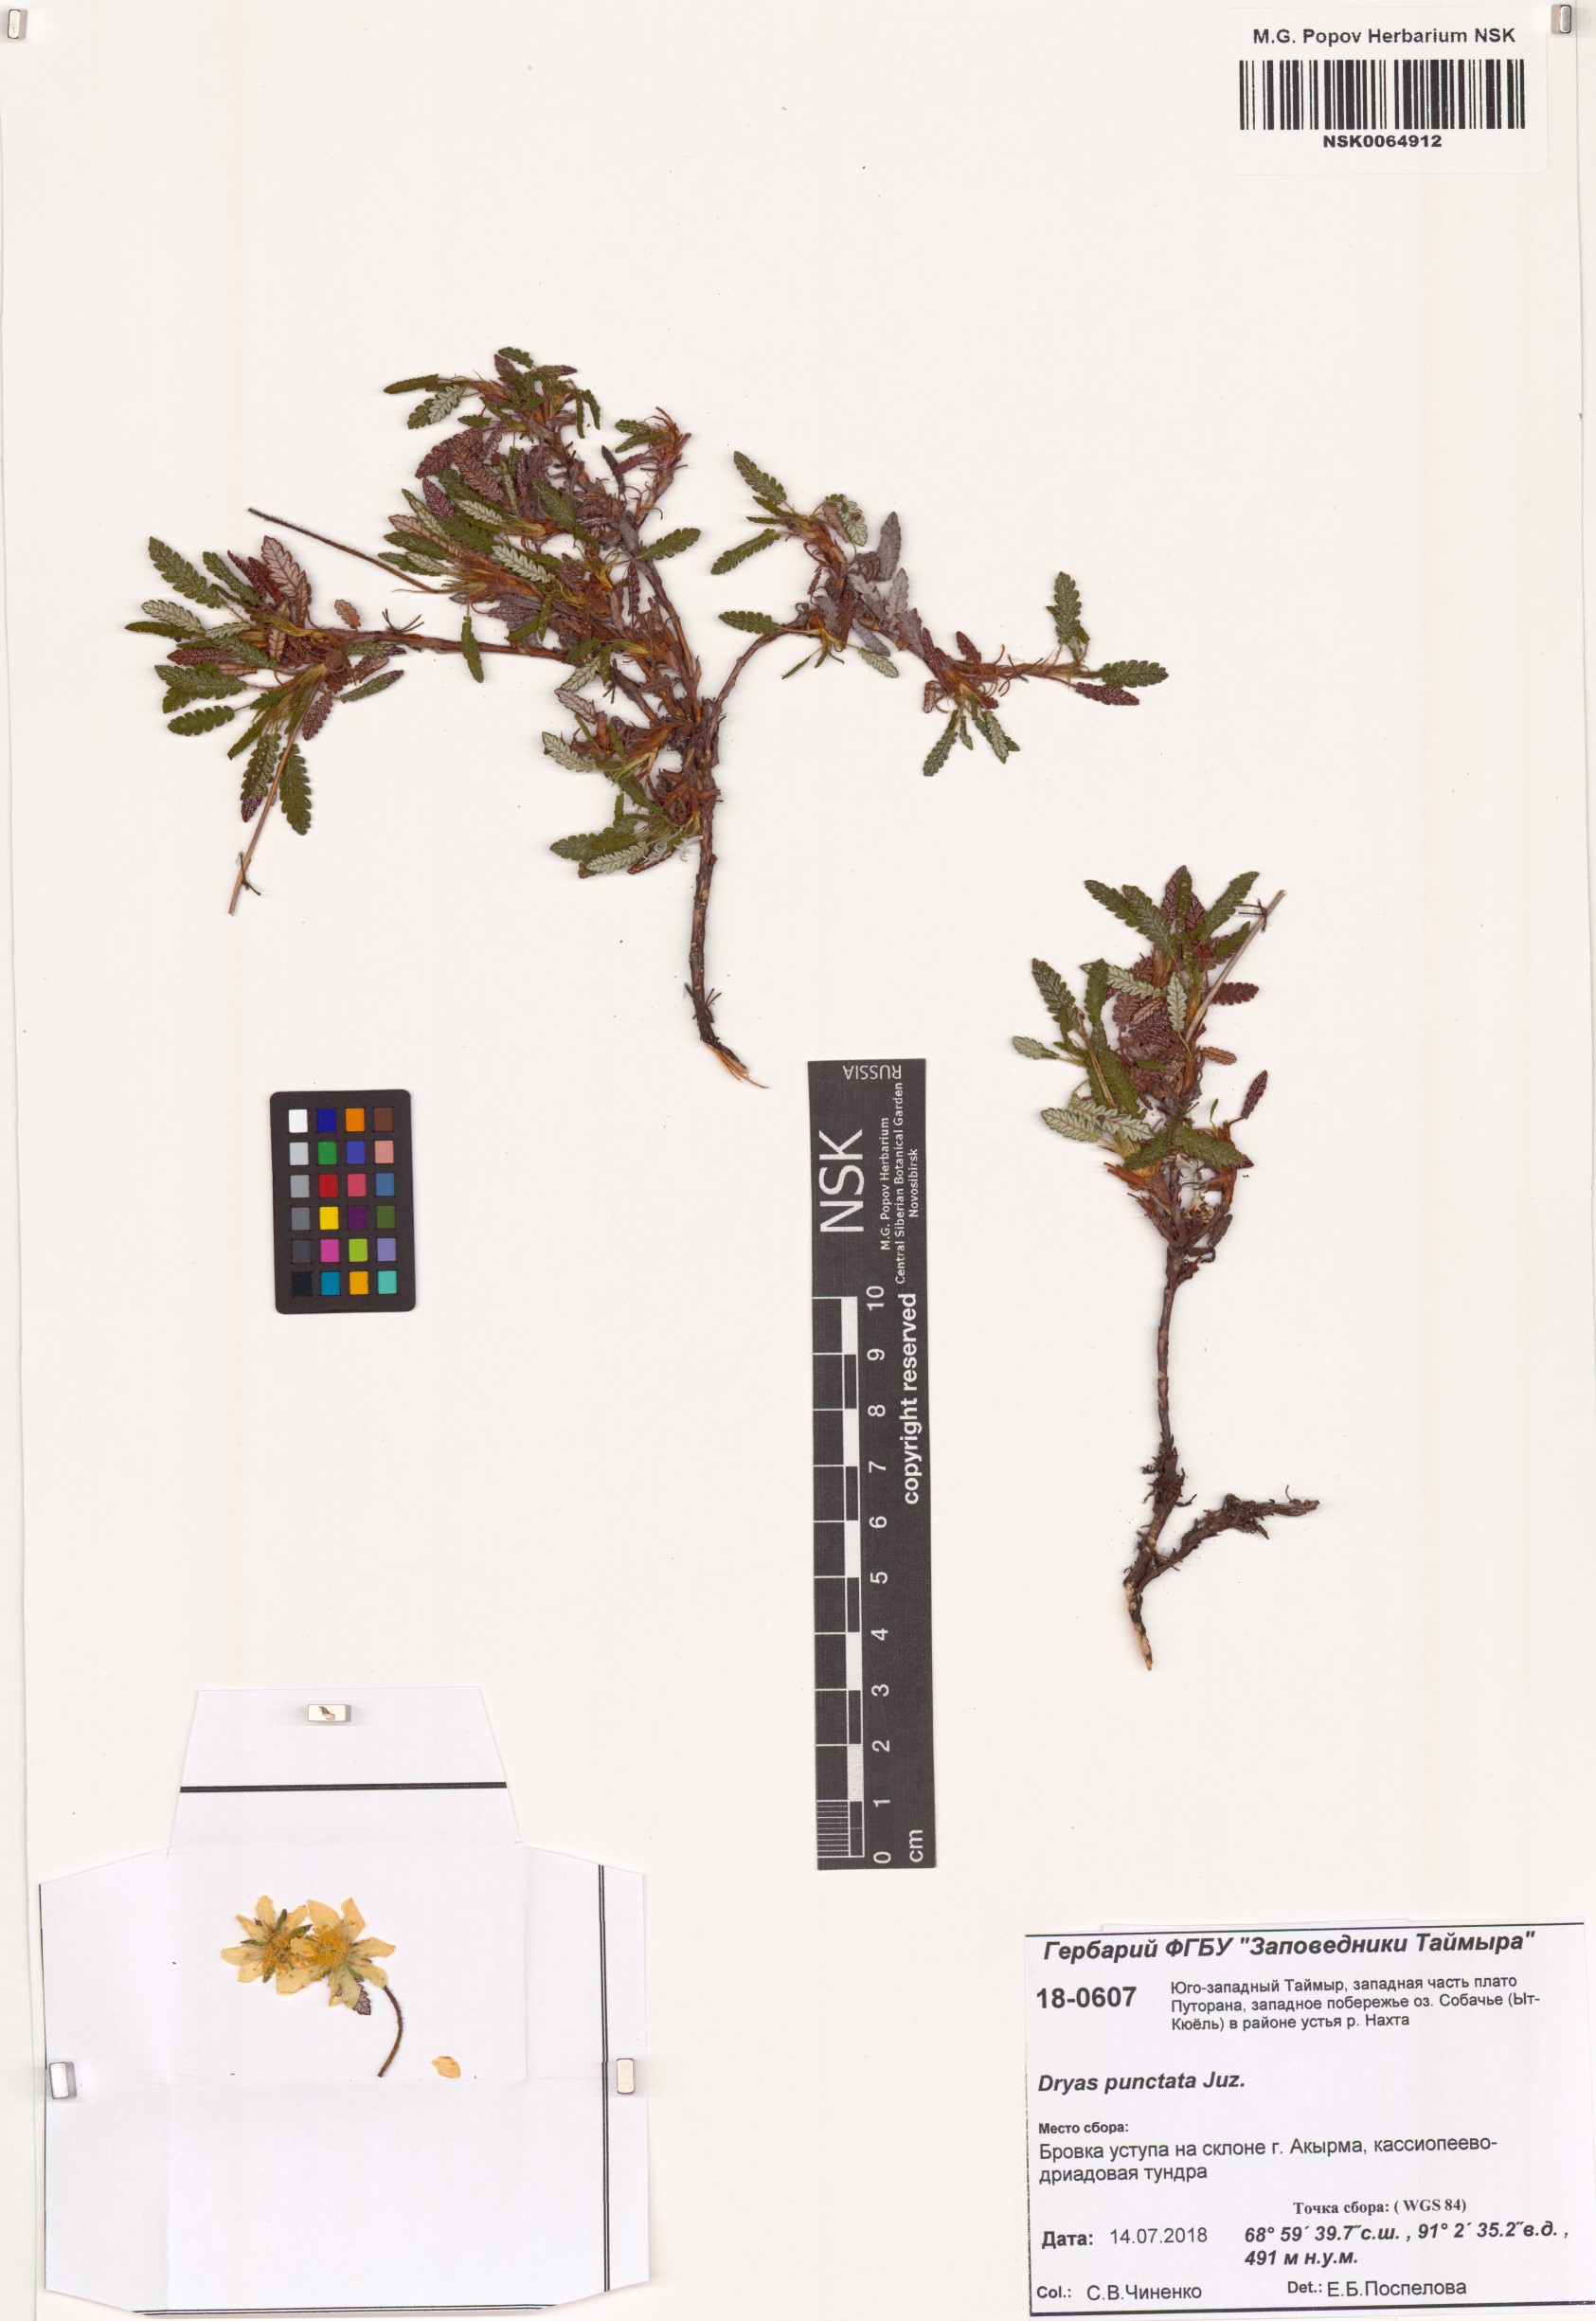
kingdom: Plantae
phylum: Tracheophyta
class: Magnoliopsida
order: Rosales
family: Rosaceae
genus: Dryas
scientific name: Dryas octopetala
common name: Eight-petal mountain-avens
